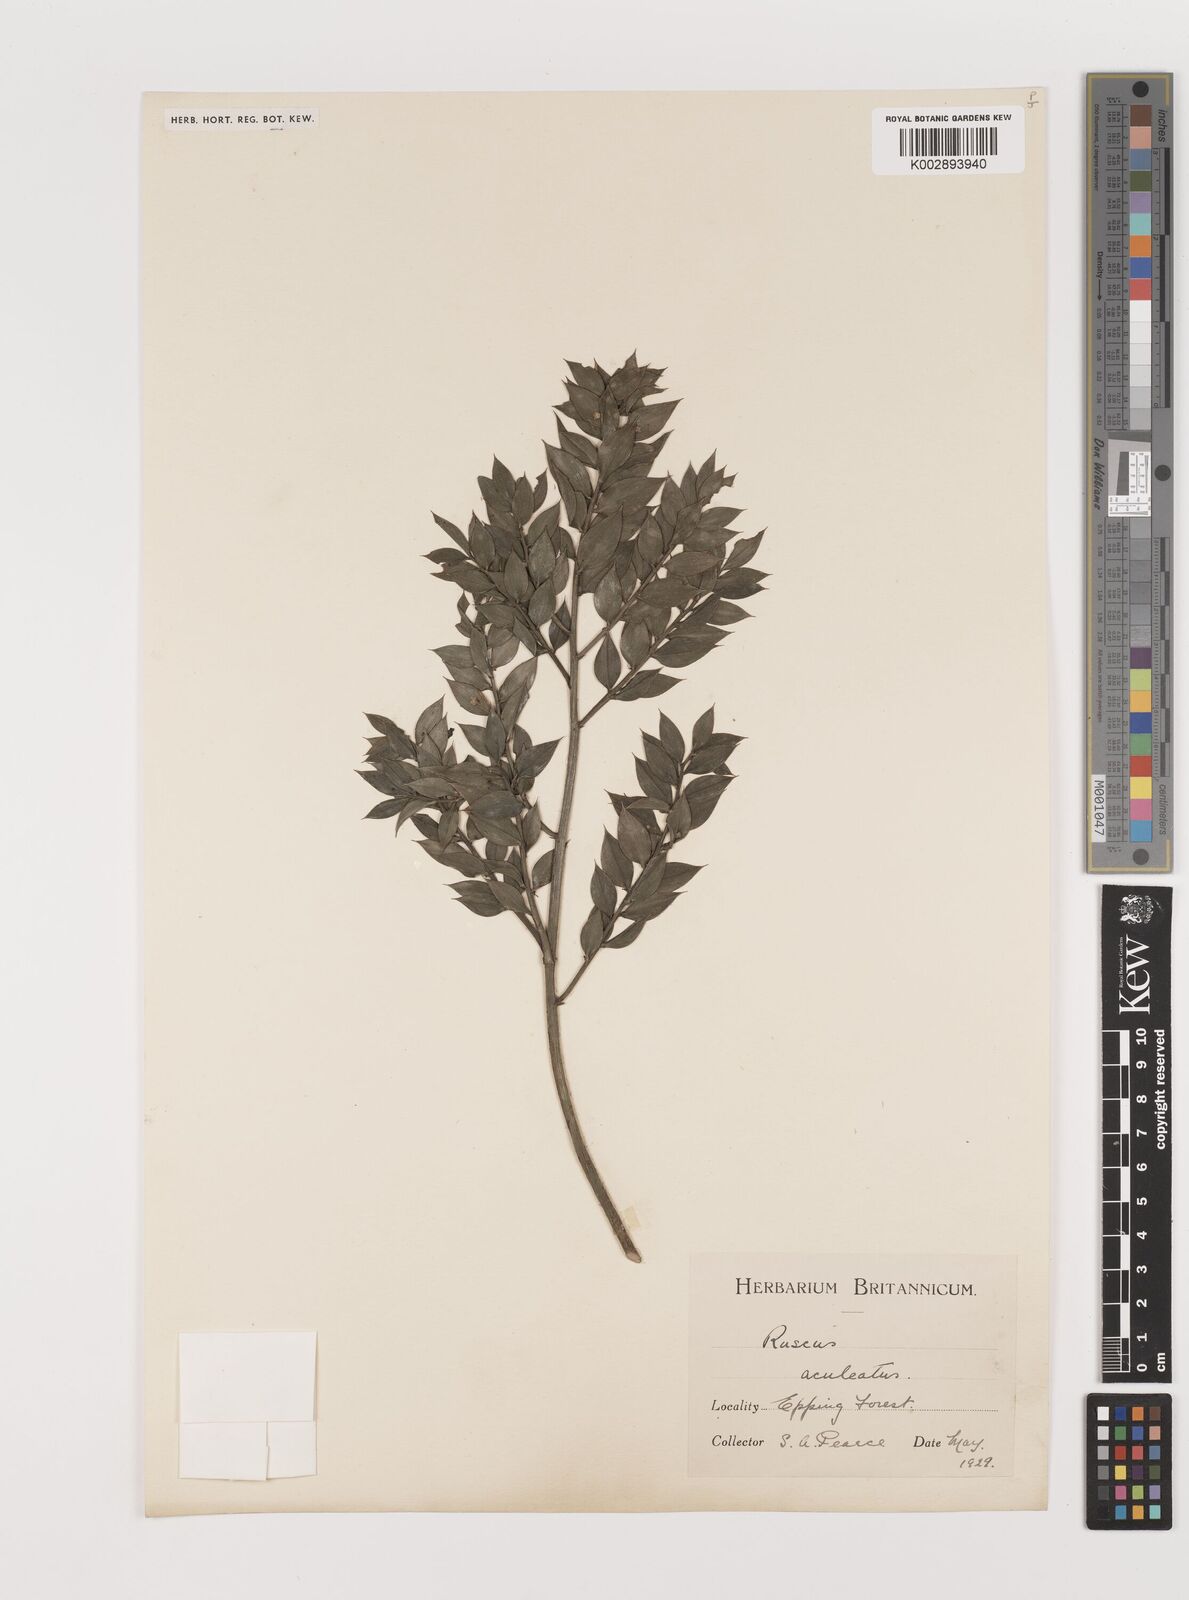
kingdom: Plantae
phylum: Tracheophyta
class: Liliopsida
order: Asparagales
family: Asparagaceae
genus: Ruscus
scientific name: Ruscus aculeatus
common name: Butcher's-broom
